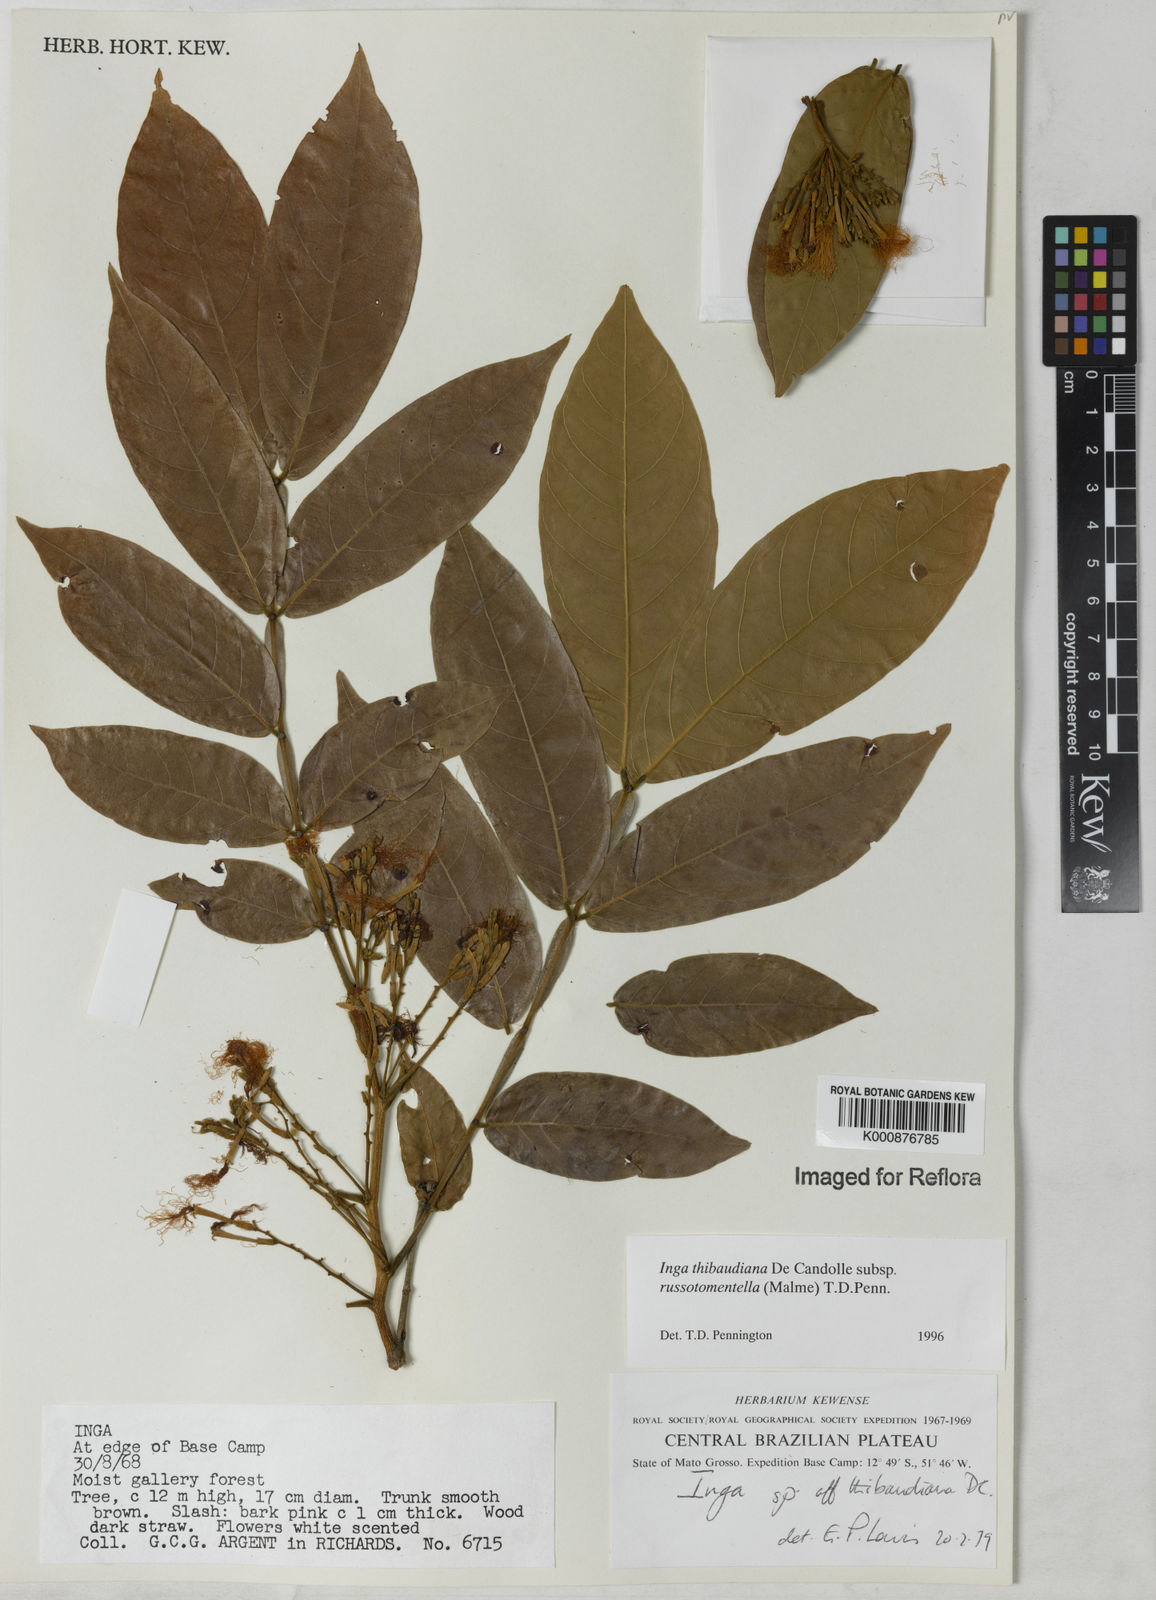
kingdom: Plantae
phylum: Tracheophyta
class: Magnoliopsida
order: Fabales
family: Fabaceae
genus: Inga
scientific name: Inga thibaudiana
